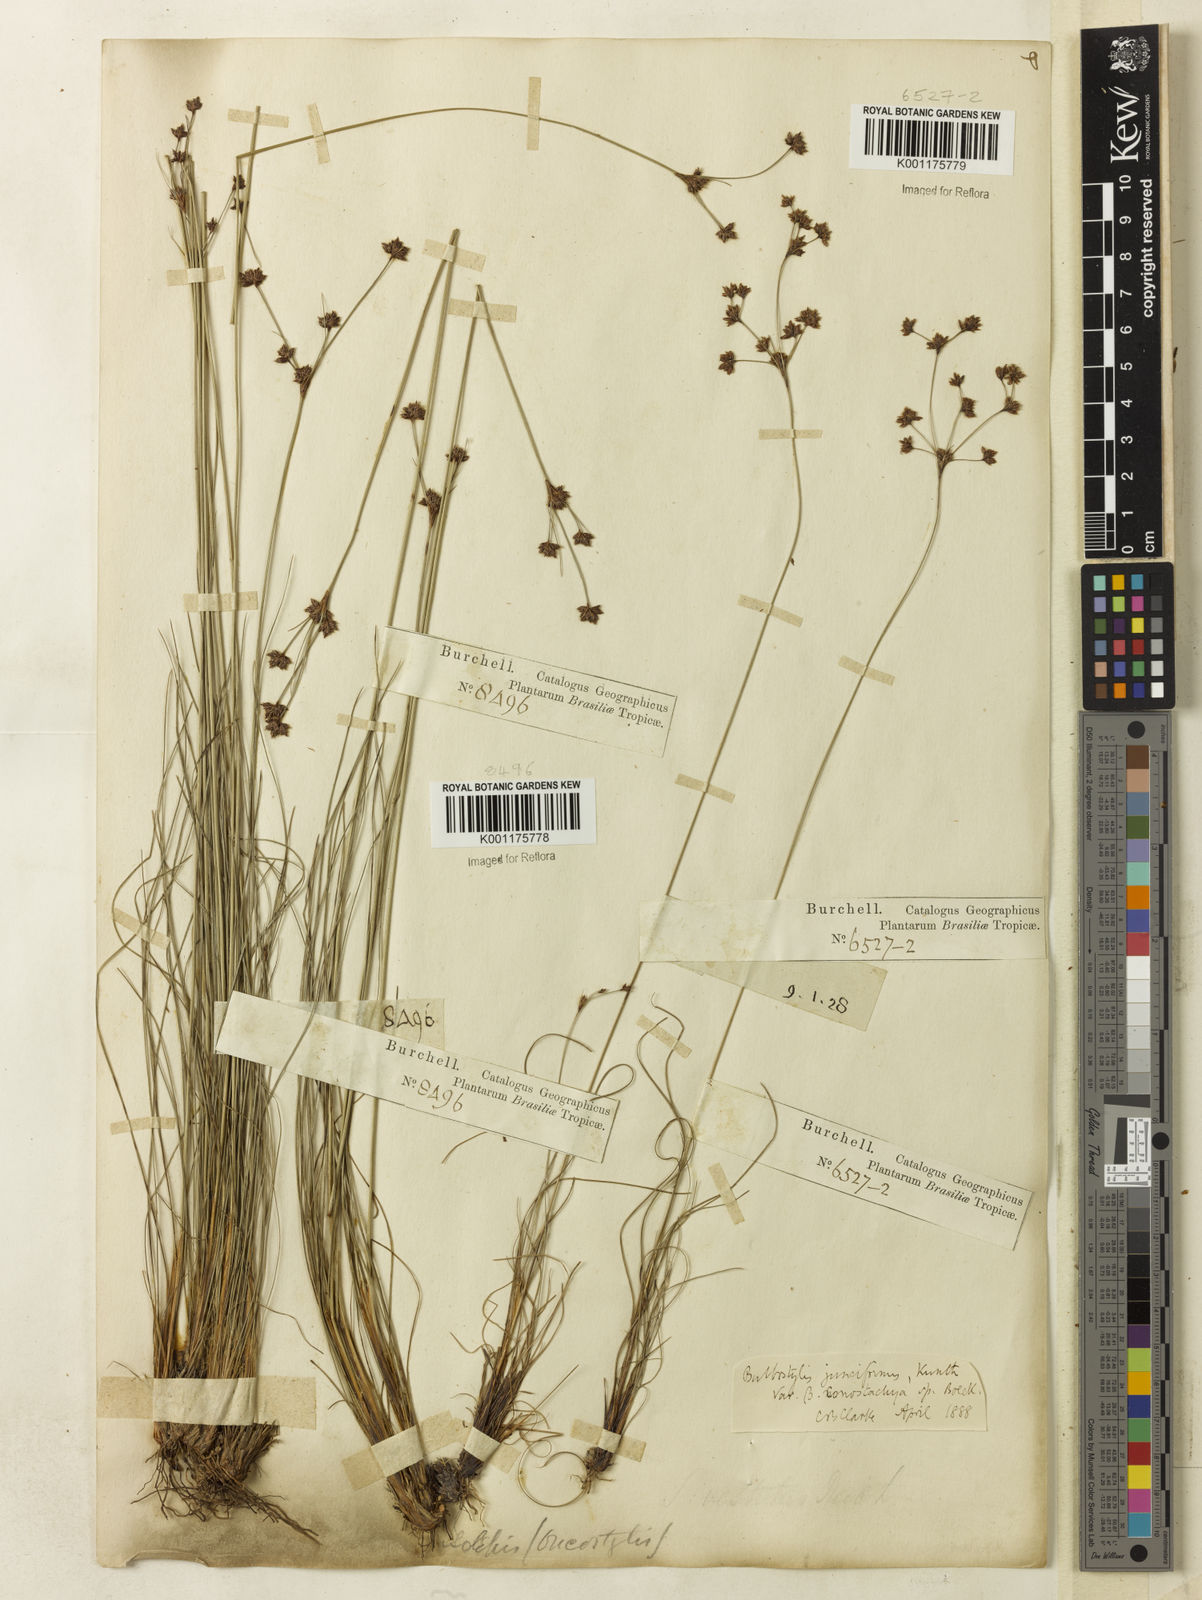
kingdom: Plantae
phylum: Tracheophyta
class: Liliopsida
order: Poales
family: Cyperaceae
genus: Bulbostylis
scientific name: Bulbostylis conostachya
